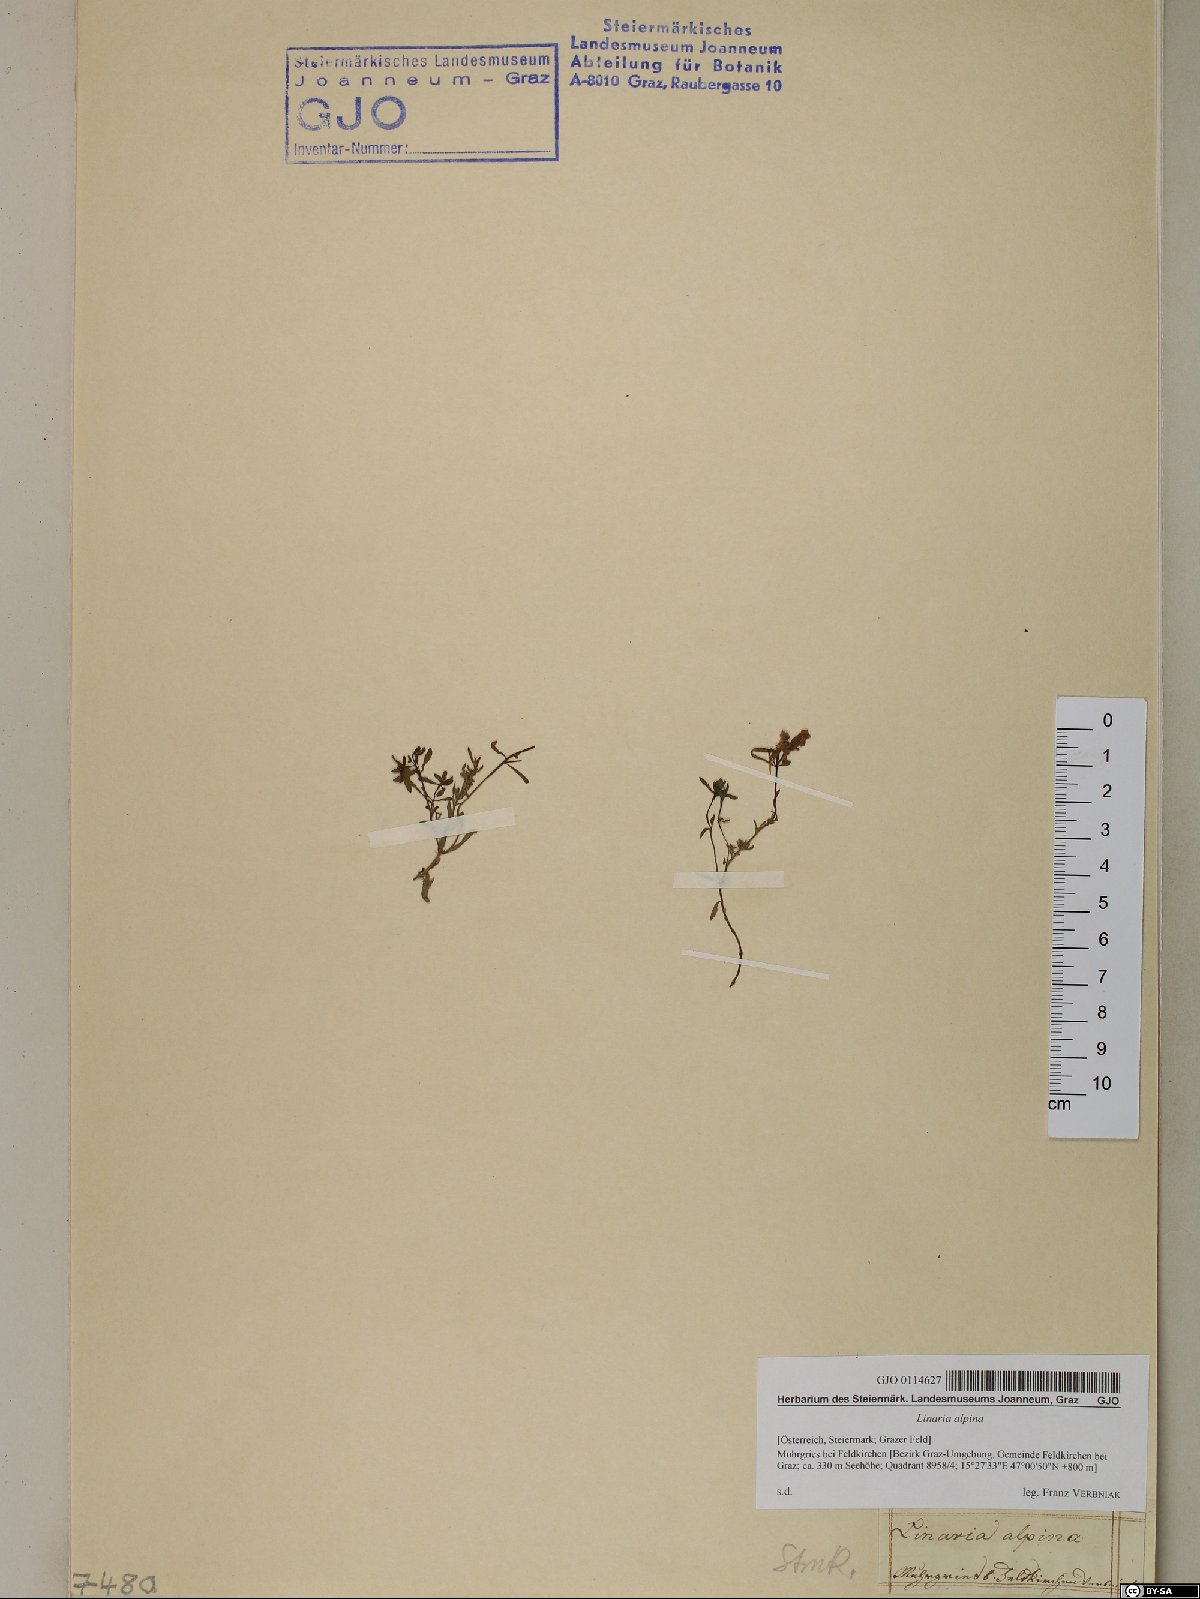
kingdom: Plantae
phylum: Tracheophyta
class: Magnoliopsida
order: Lamiales
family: Plantaginaceae
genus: Linaria
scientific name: Linaria alpina
